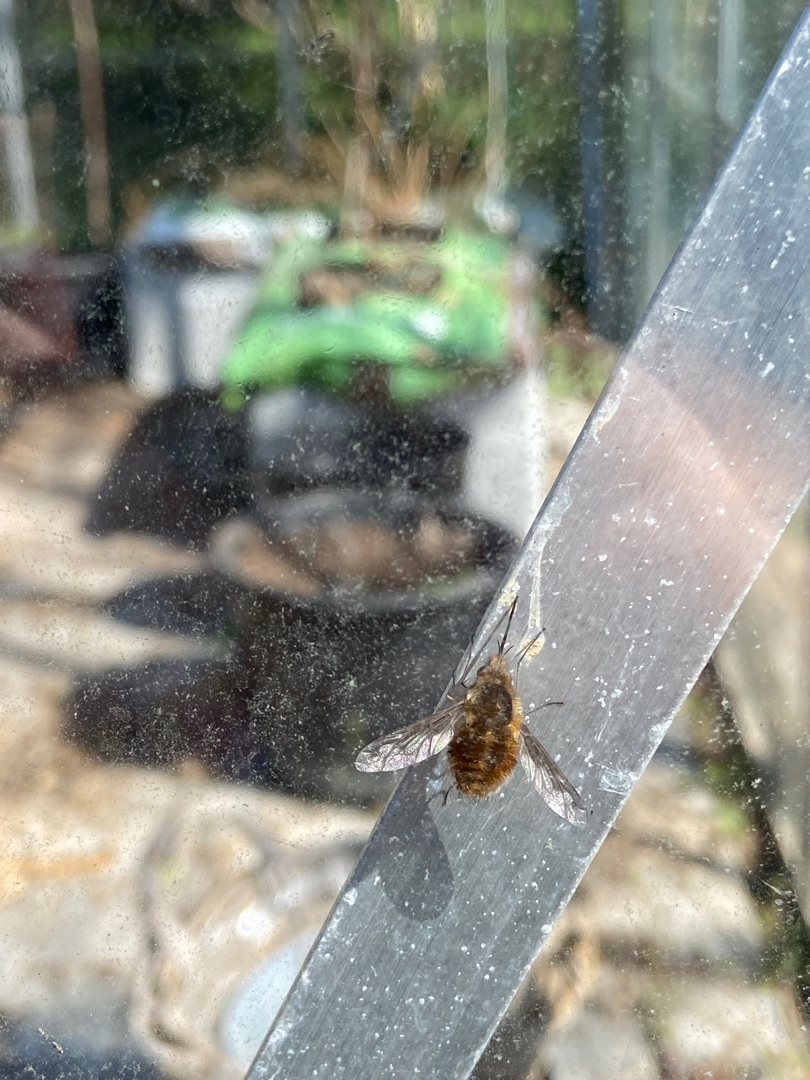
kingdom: Animalia
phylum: Arthropoda
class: Insecta
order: Diptera
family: Bombyliidae
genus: Bombylius
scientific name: Bombylius major
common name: Stor humleflue
